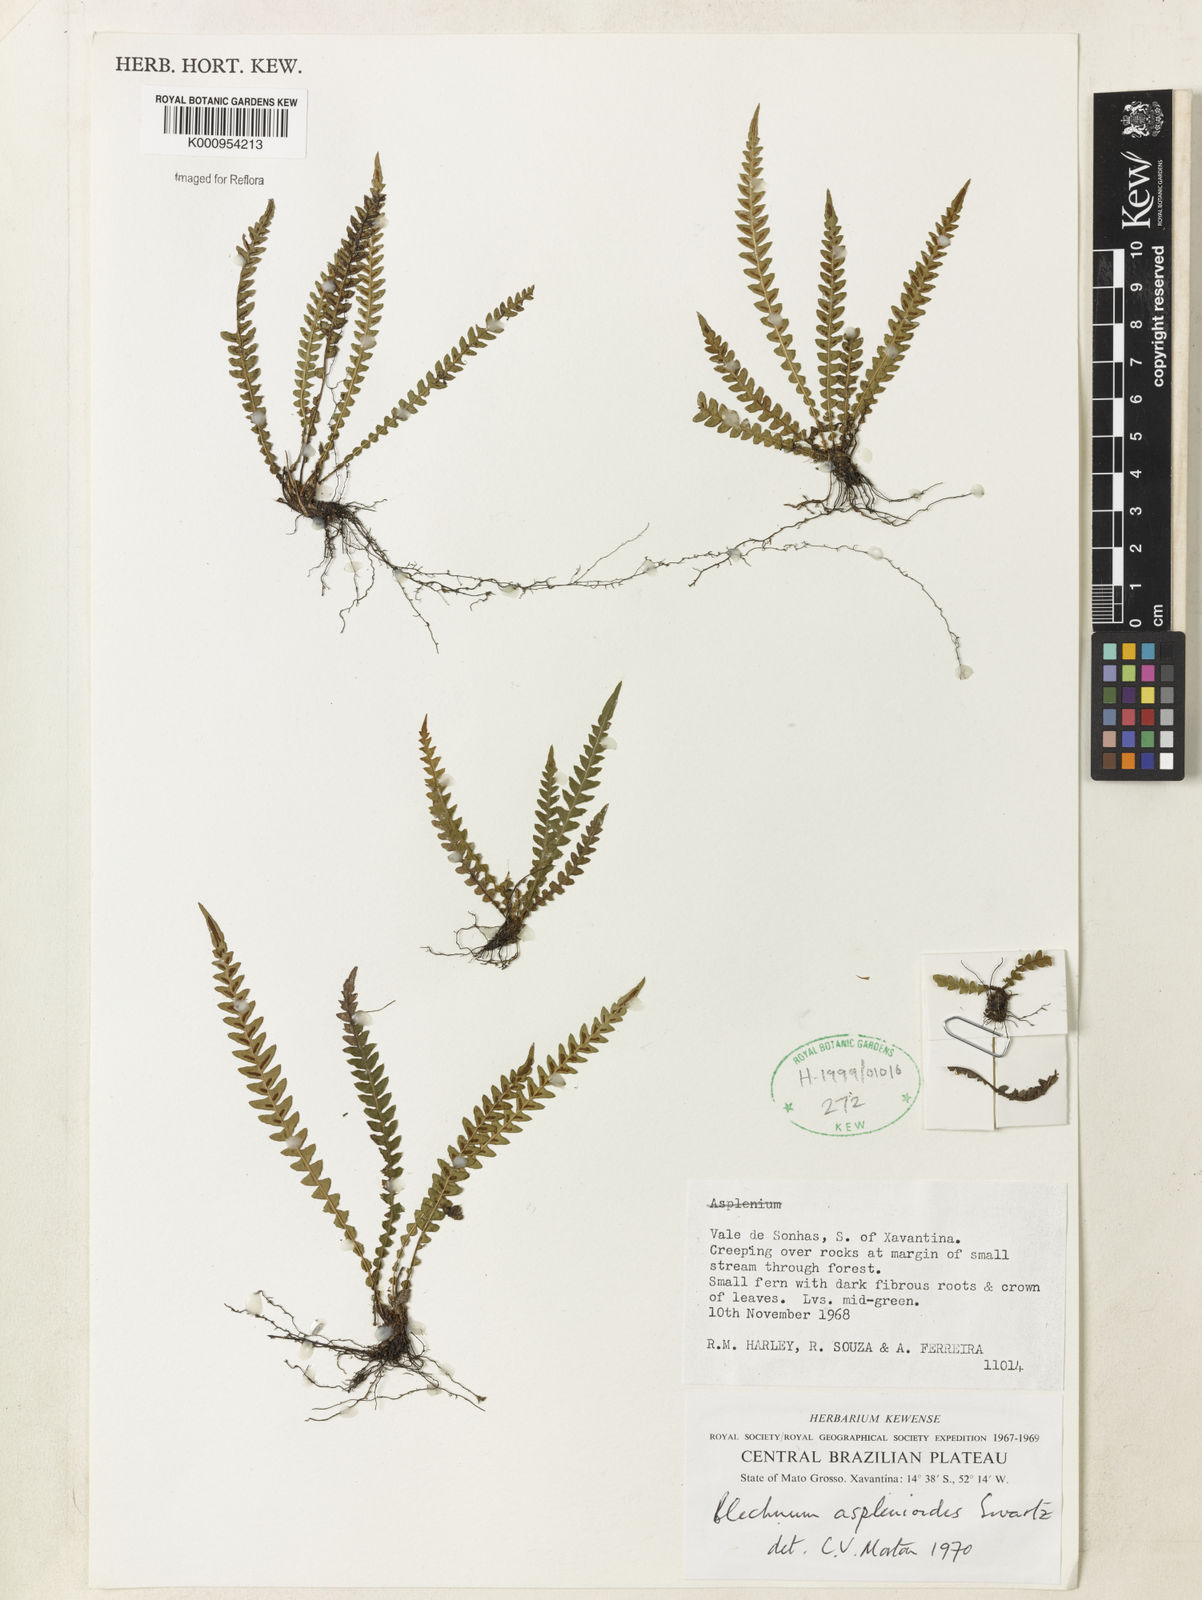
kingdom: Plantae
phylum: Tracheophyta
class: Polypodiopsida
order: Polypodiales
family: Blechnaceae
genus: Blechnum
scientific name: Blechnum asplenioides
